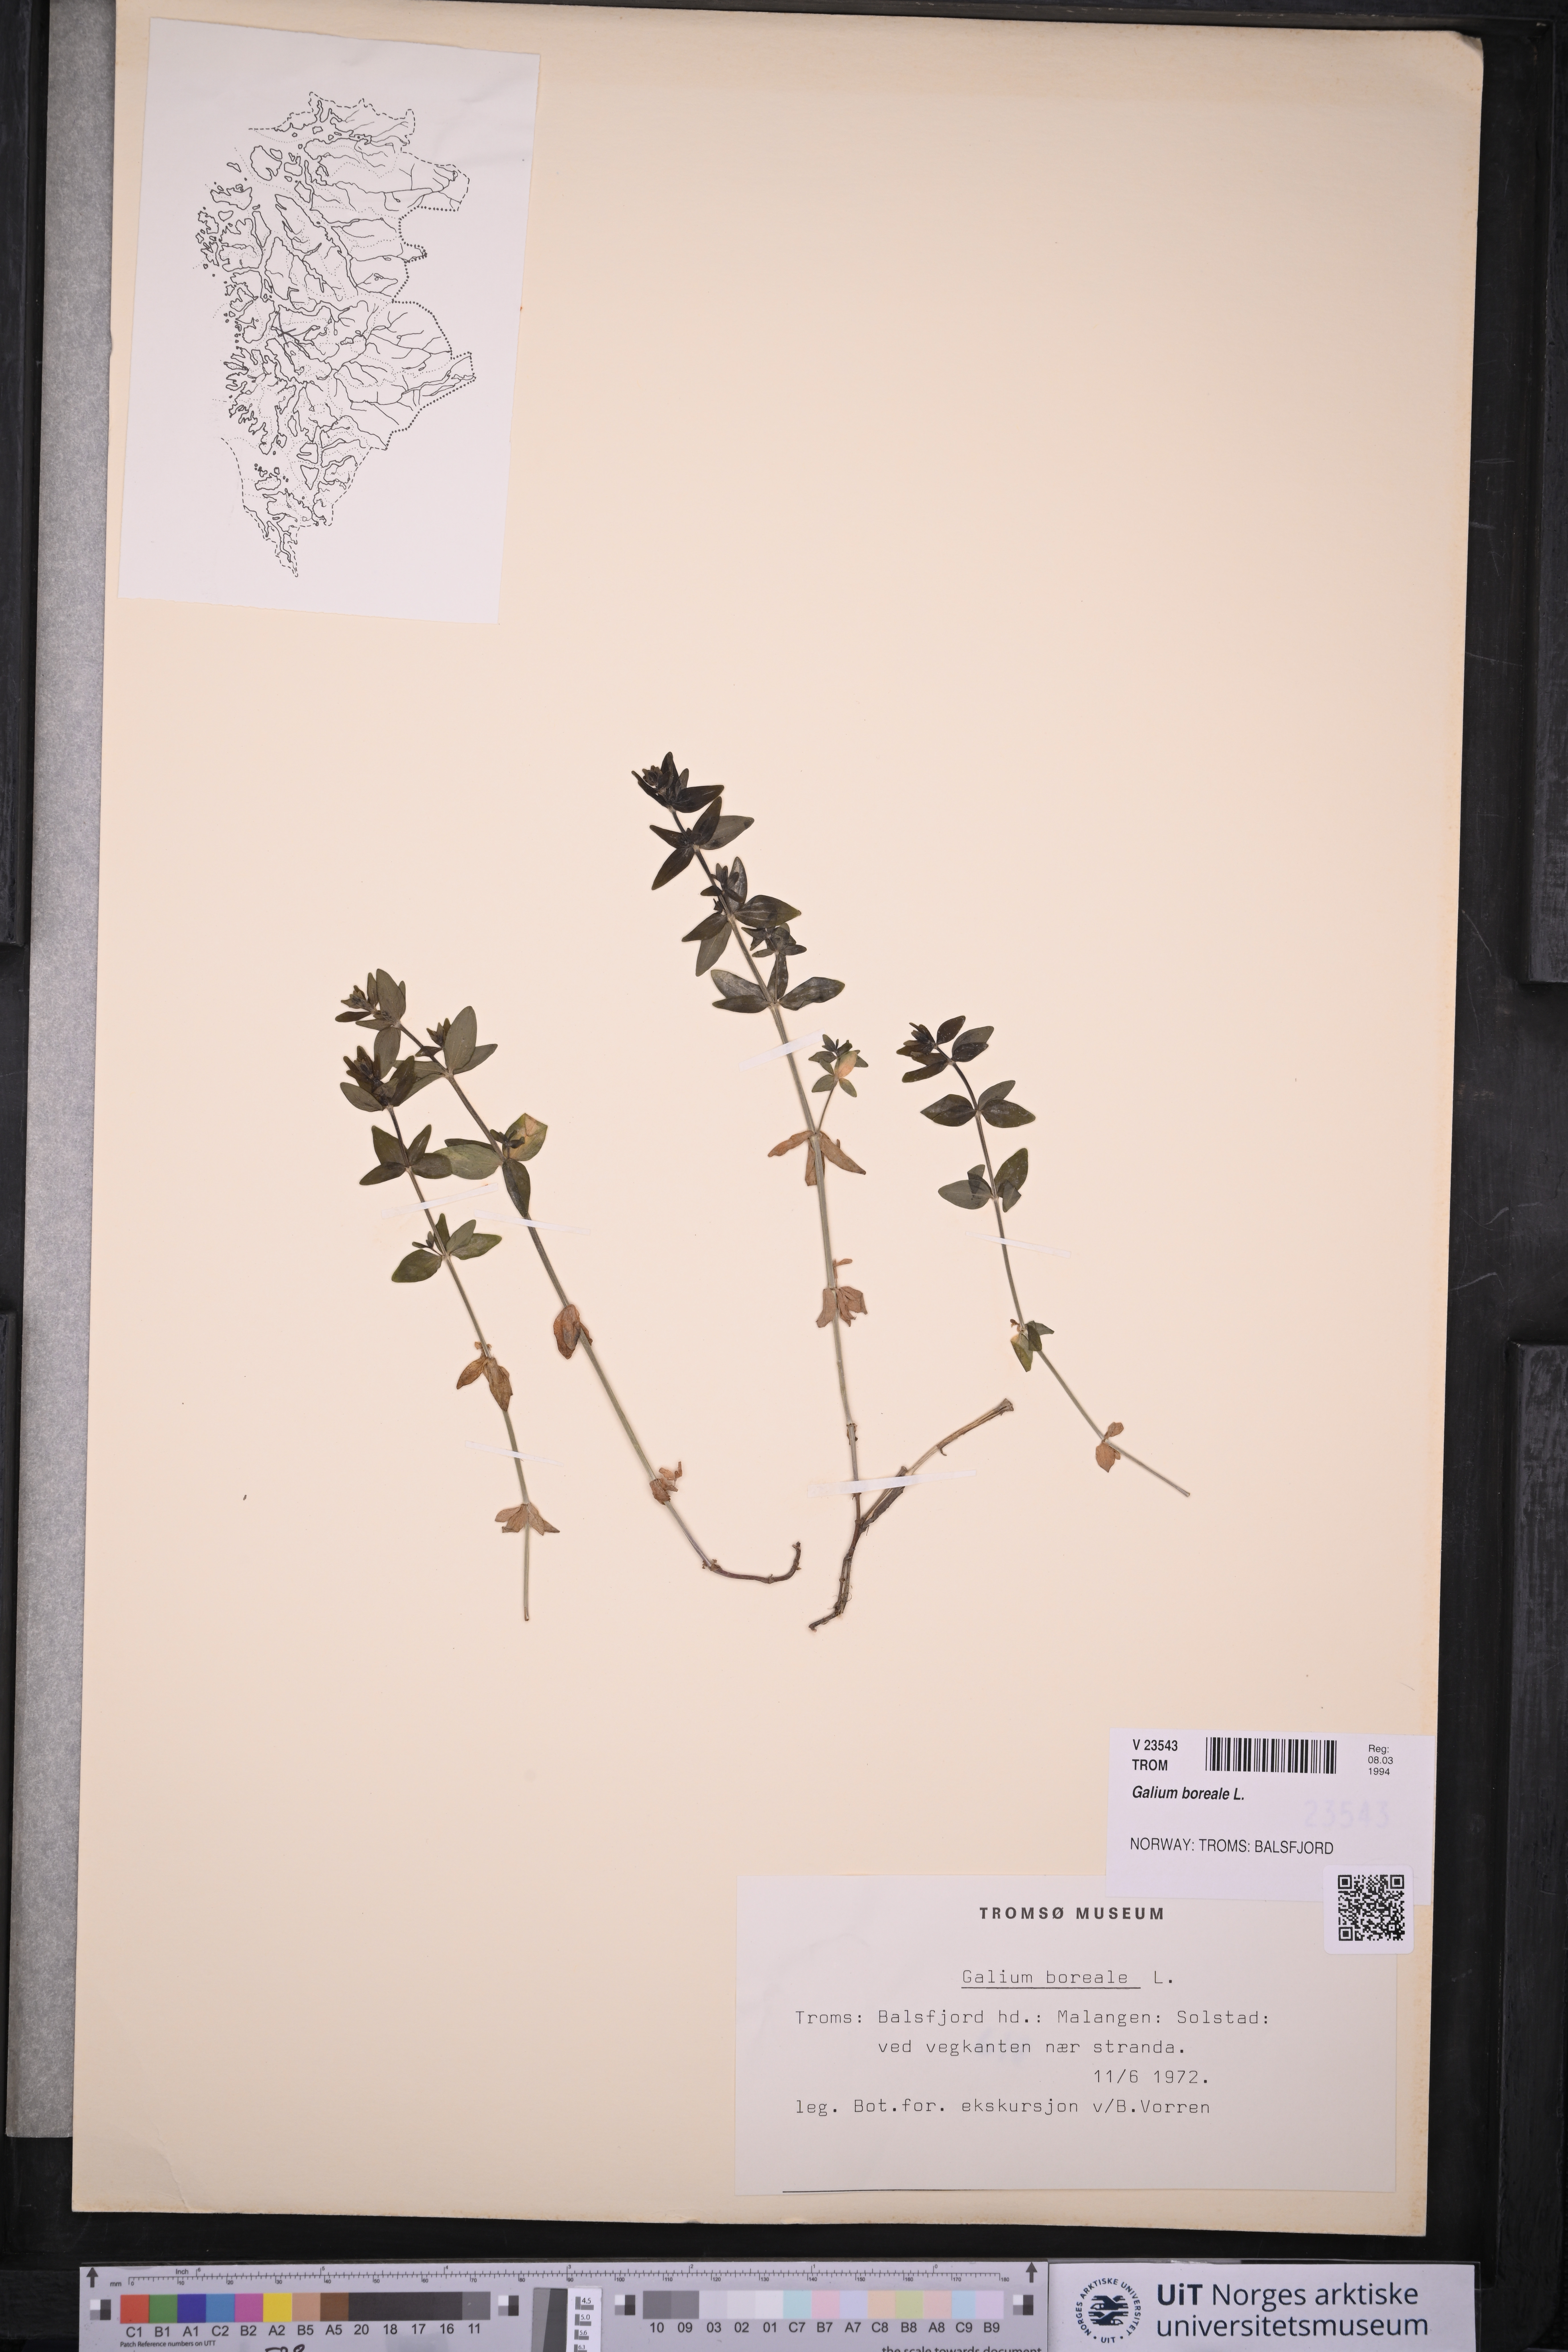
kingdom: Plantae
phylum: Tracheophyta
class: Magnoliopsida
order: Gentianales
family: Rubiaceae
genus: Galium
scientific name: Galium boreale
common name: Northern bedstraw
